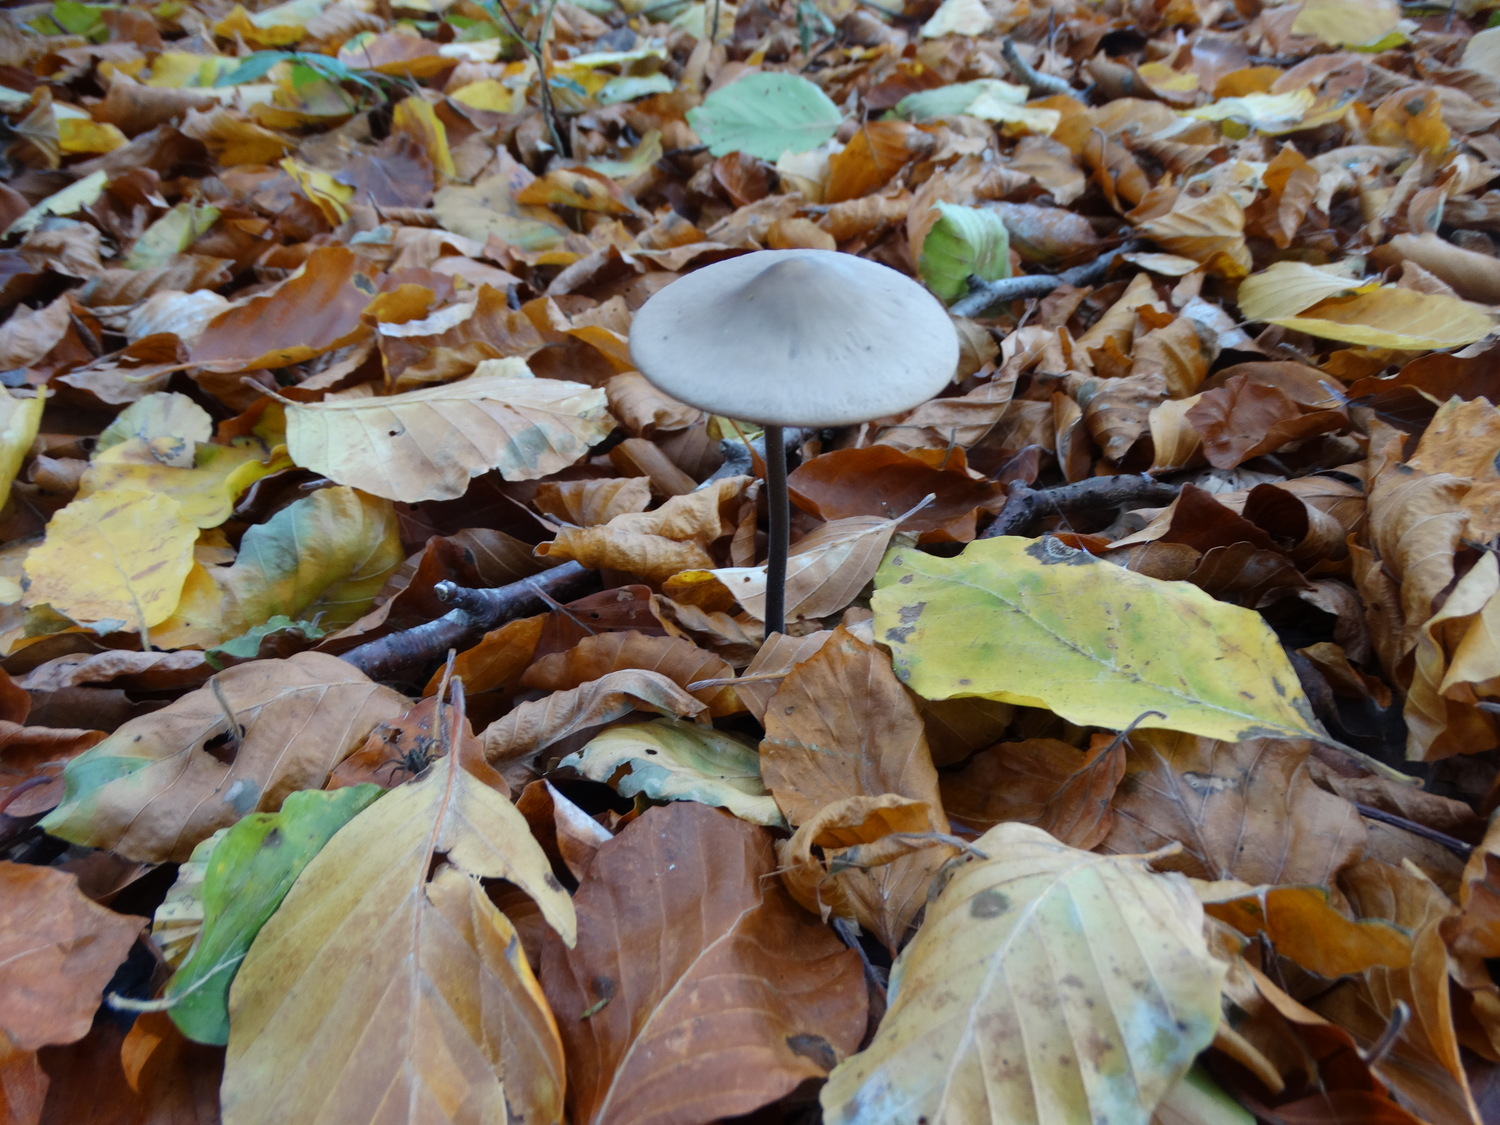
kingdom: Fungi
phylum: Basidiomycota
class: Agaricomycetes
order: Agaricales
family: Omphalotaceae
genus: Mycetinis
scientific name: Mycetinis alliaceus
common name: stor løghat
